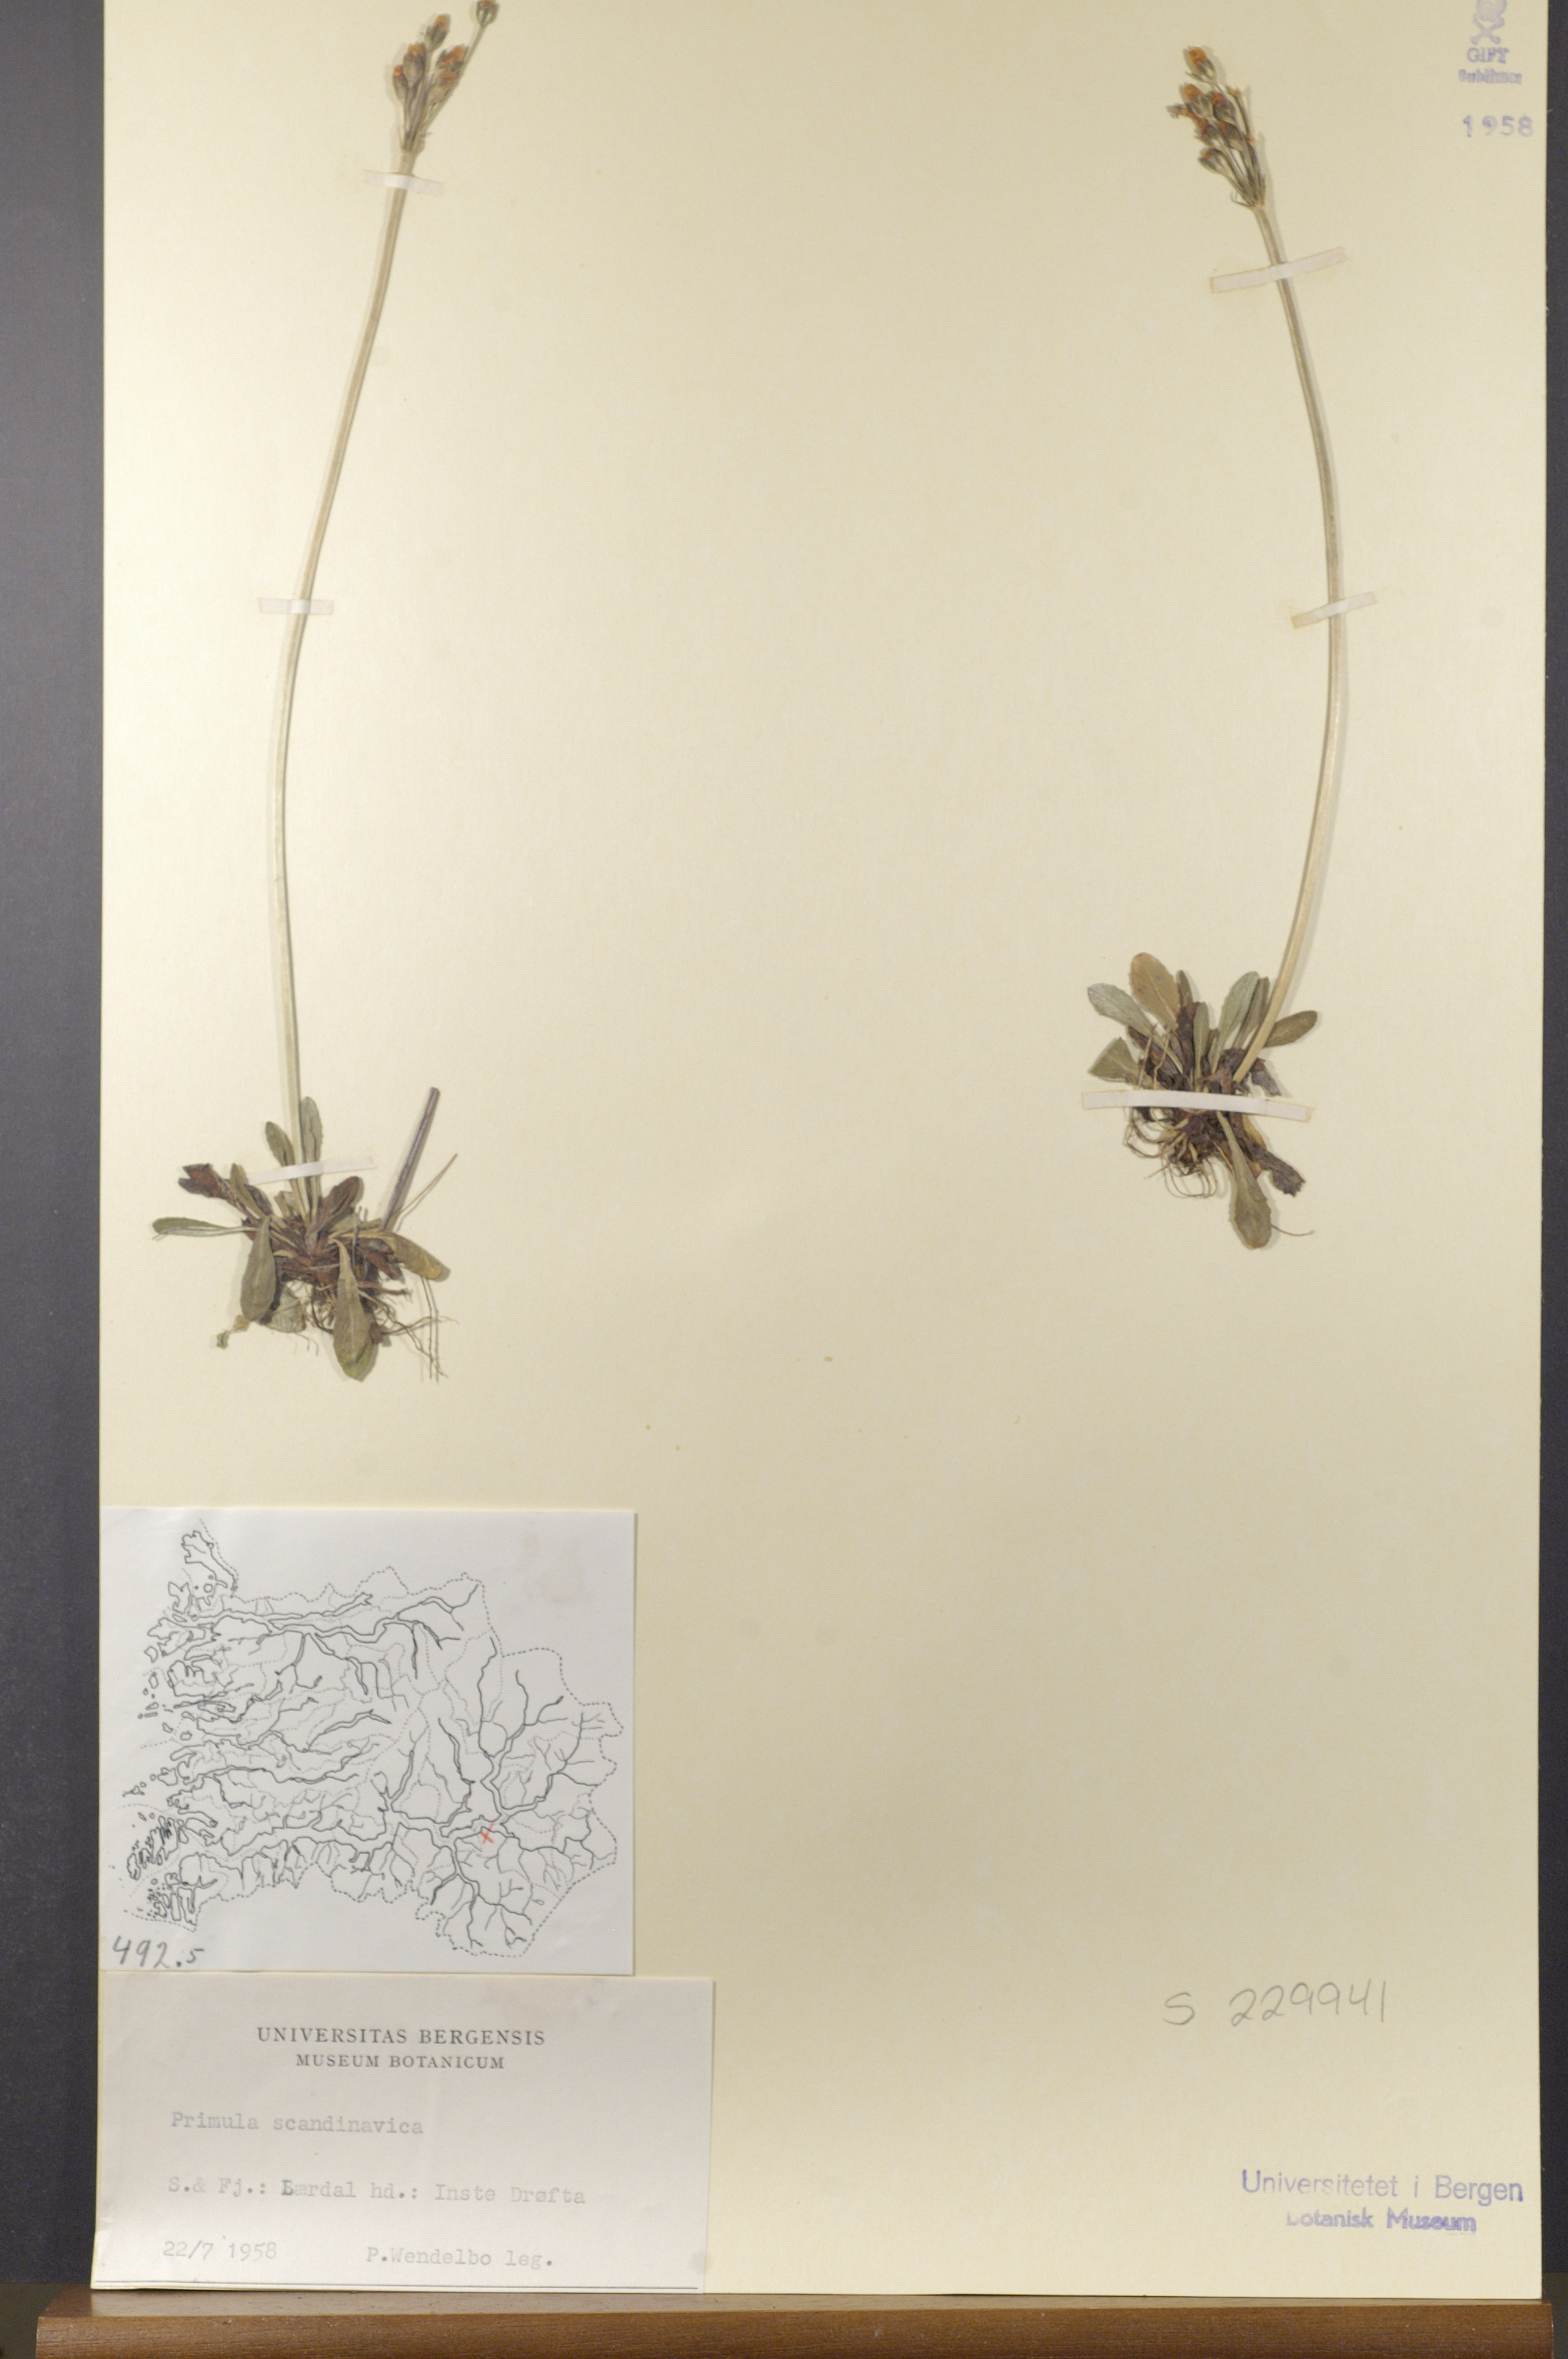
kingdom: Plantae
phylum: Tracheophyta
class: Magnoliopsida
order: Ericales
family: Primulaceae
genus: Primula
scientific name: Primula scandinavica
